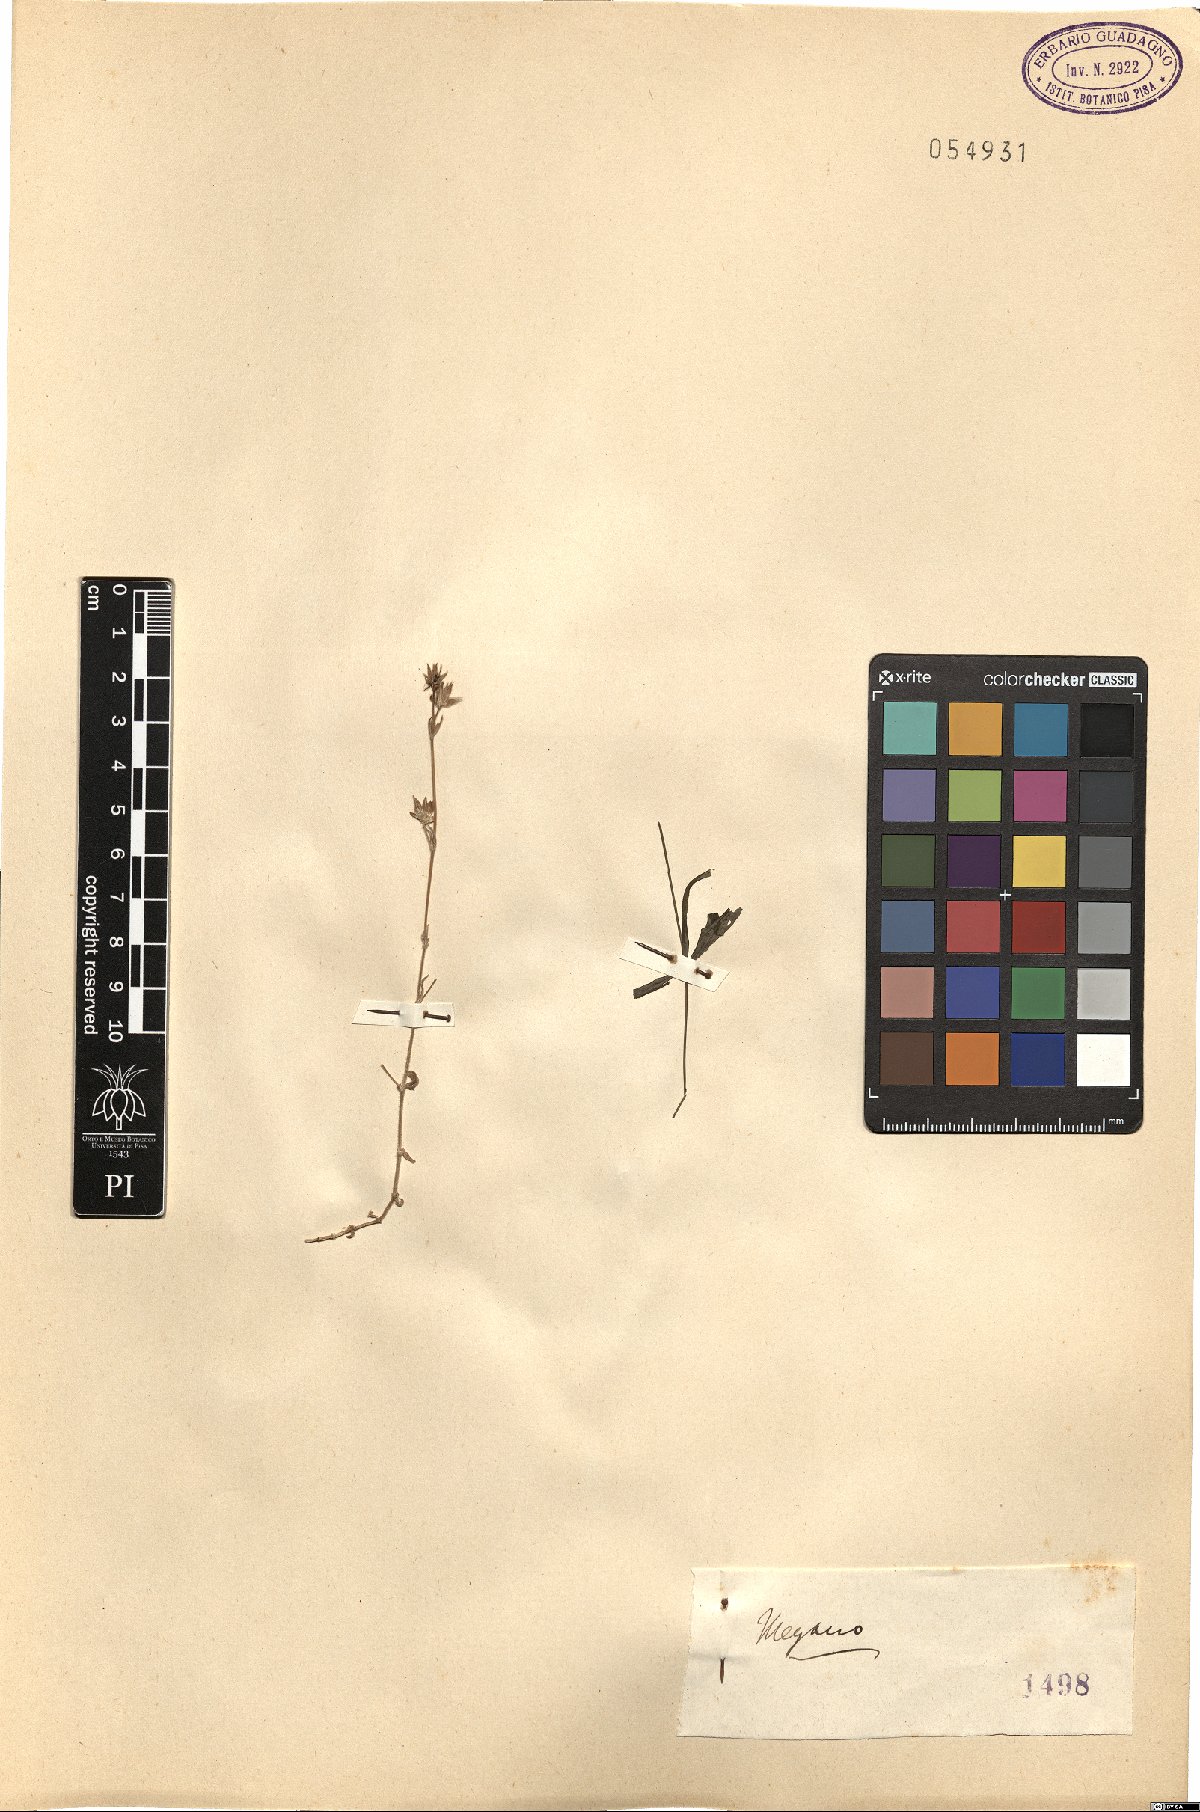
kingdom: Plantae
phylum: Tracheophyta
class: Magnoliopsida
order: Gentianales
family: Rubiaceae
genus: Sherardia
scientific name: Sherardia
